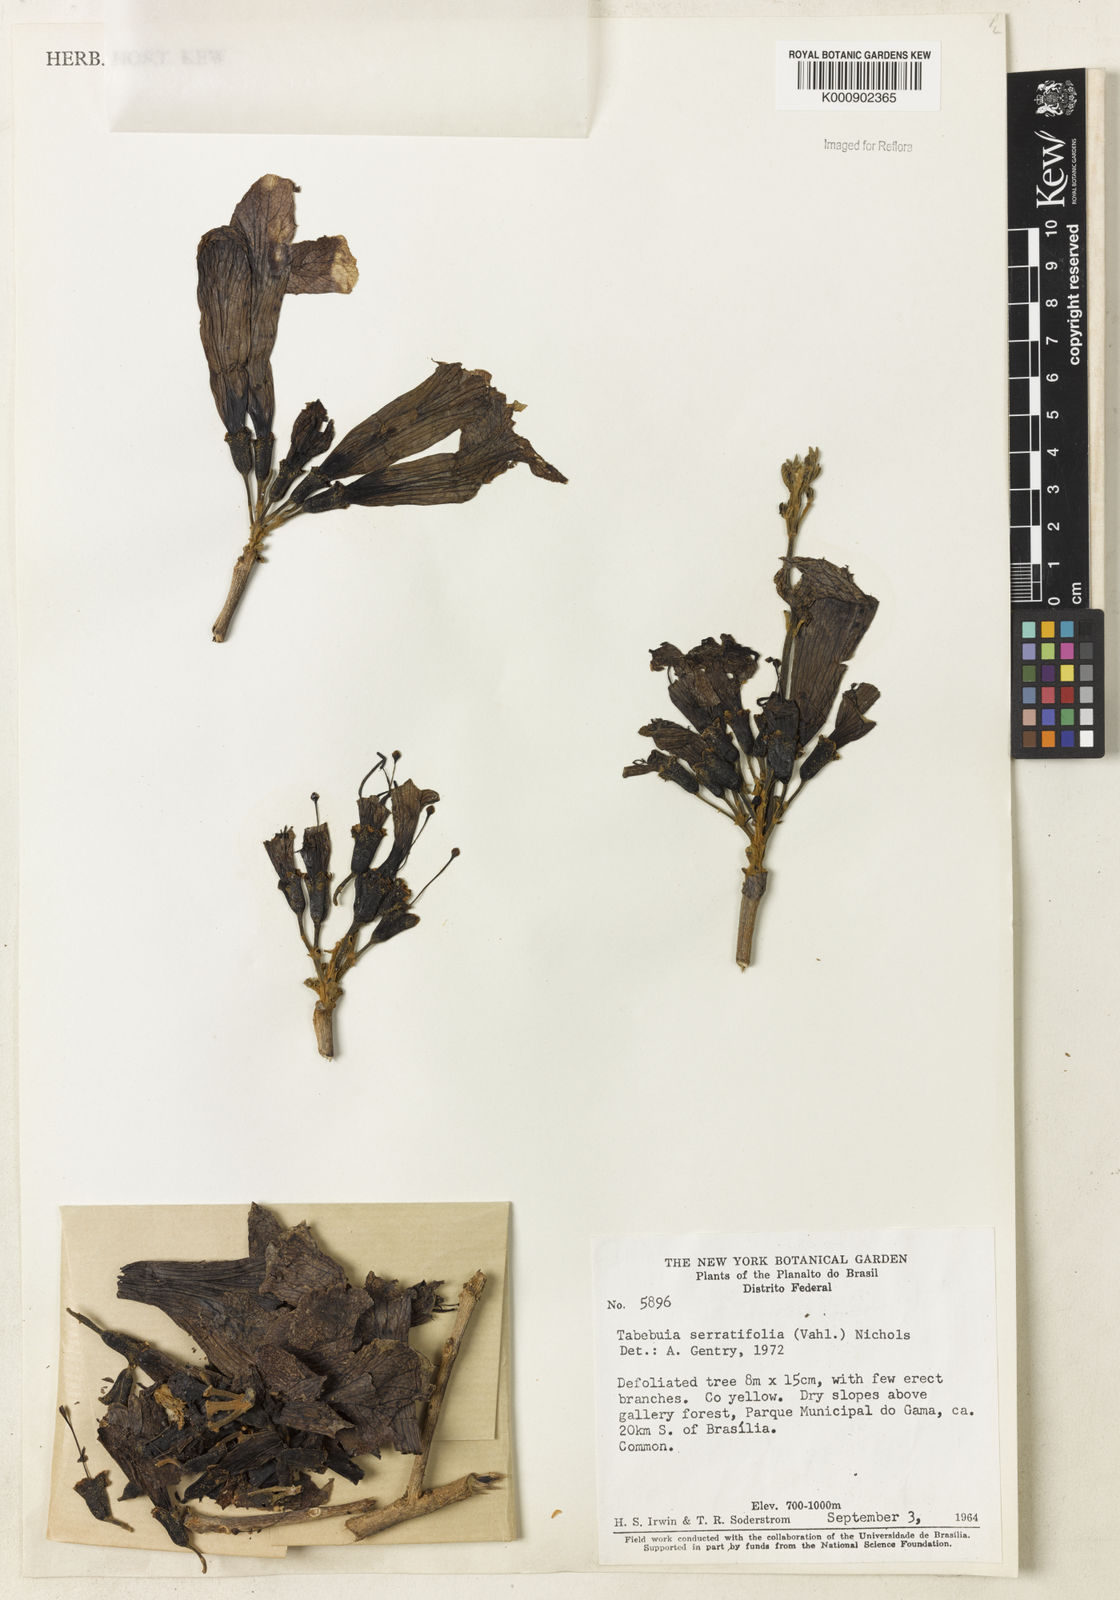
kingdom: Plantae
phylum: Tracheophyta
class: Magnoliopsida
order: Lamiales
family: Bignoniaceae
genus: Handroanthus
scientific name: Handroanthus serratifolius
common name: Yellow ipe
